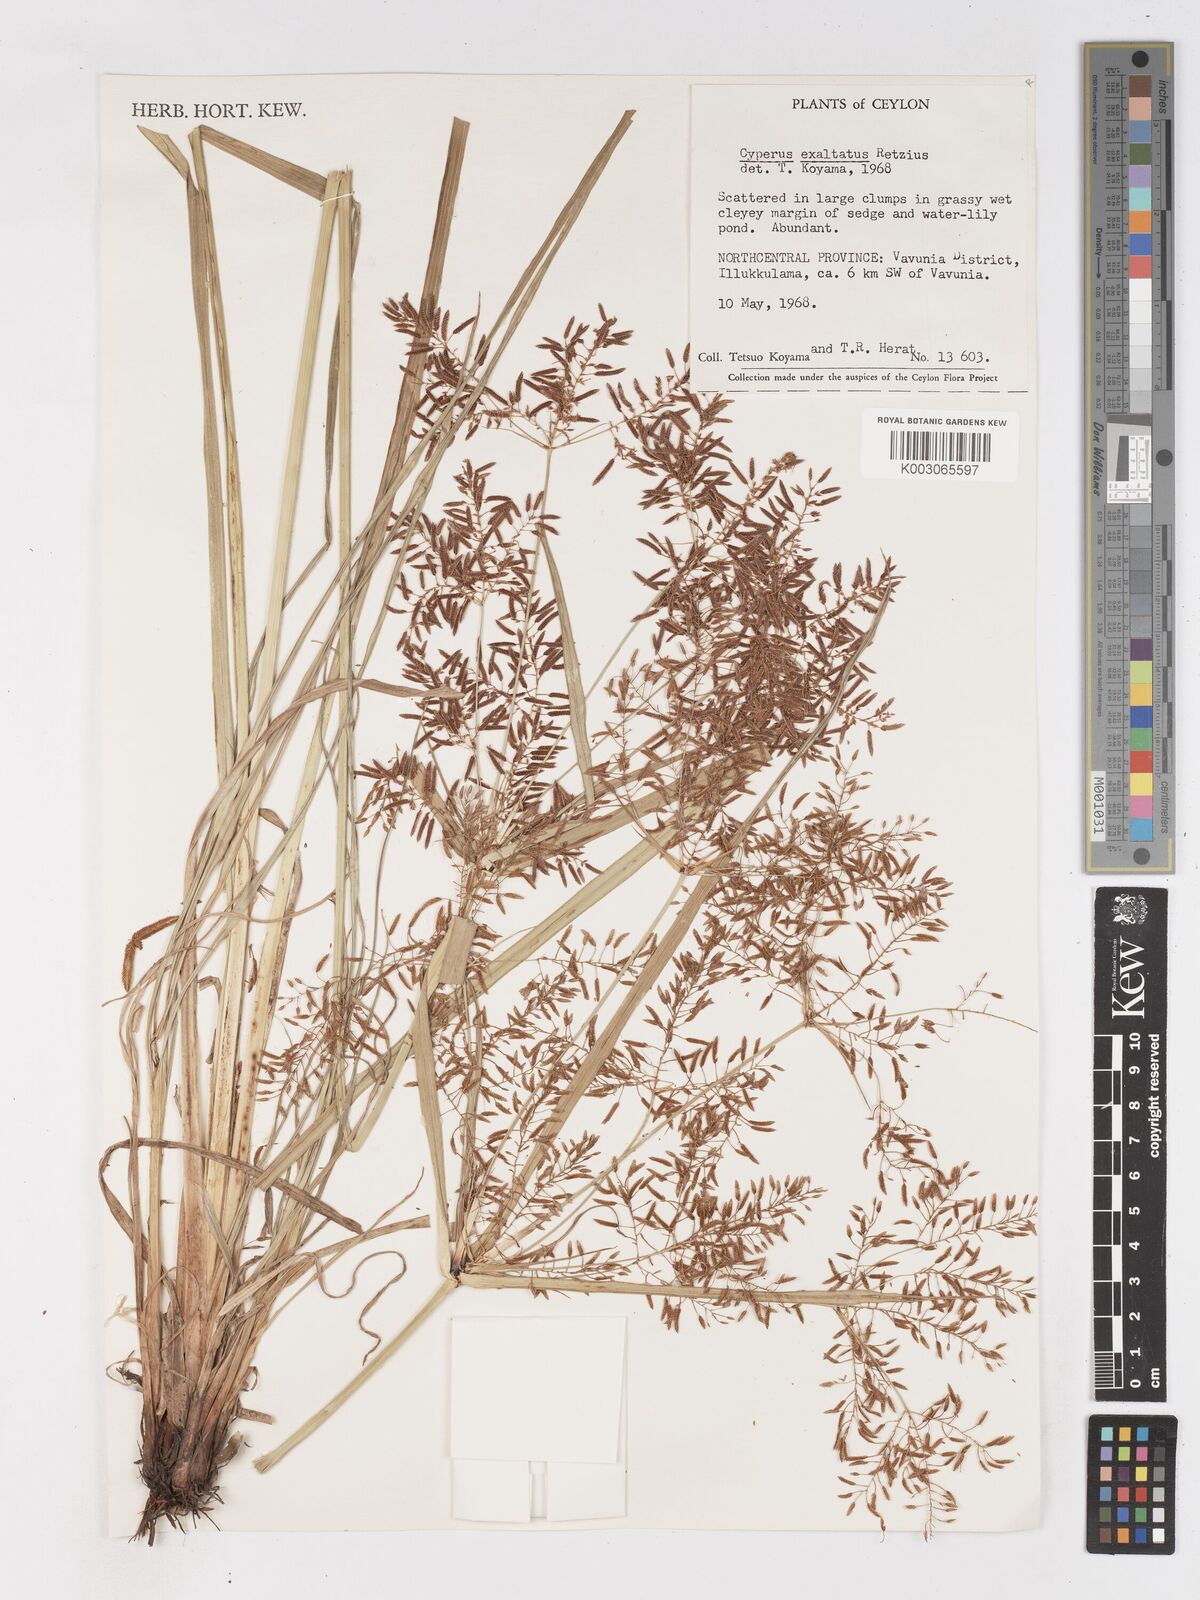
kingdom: Plantae
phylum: Tracheophyta
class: Liliopsida
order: Poales
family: Cyperaceae
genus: Cyperus
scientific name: Cyperus exaltatus
